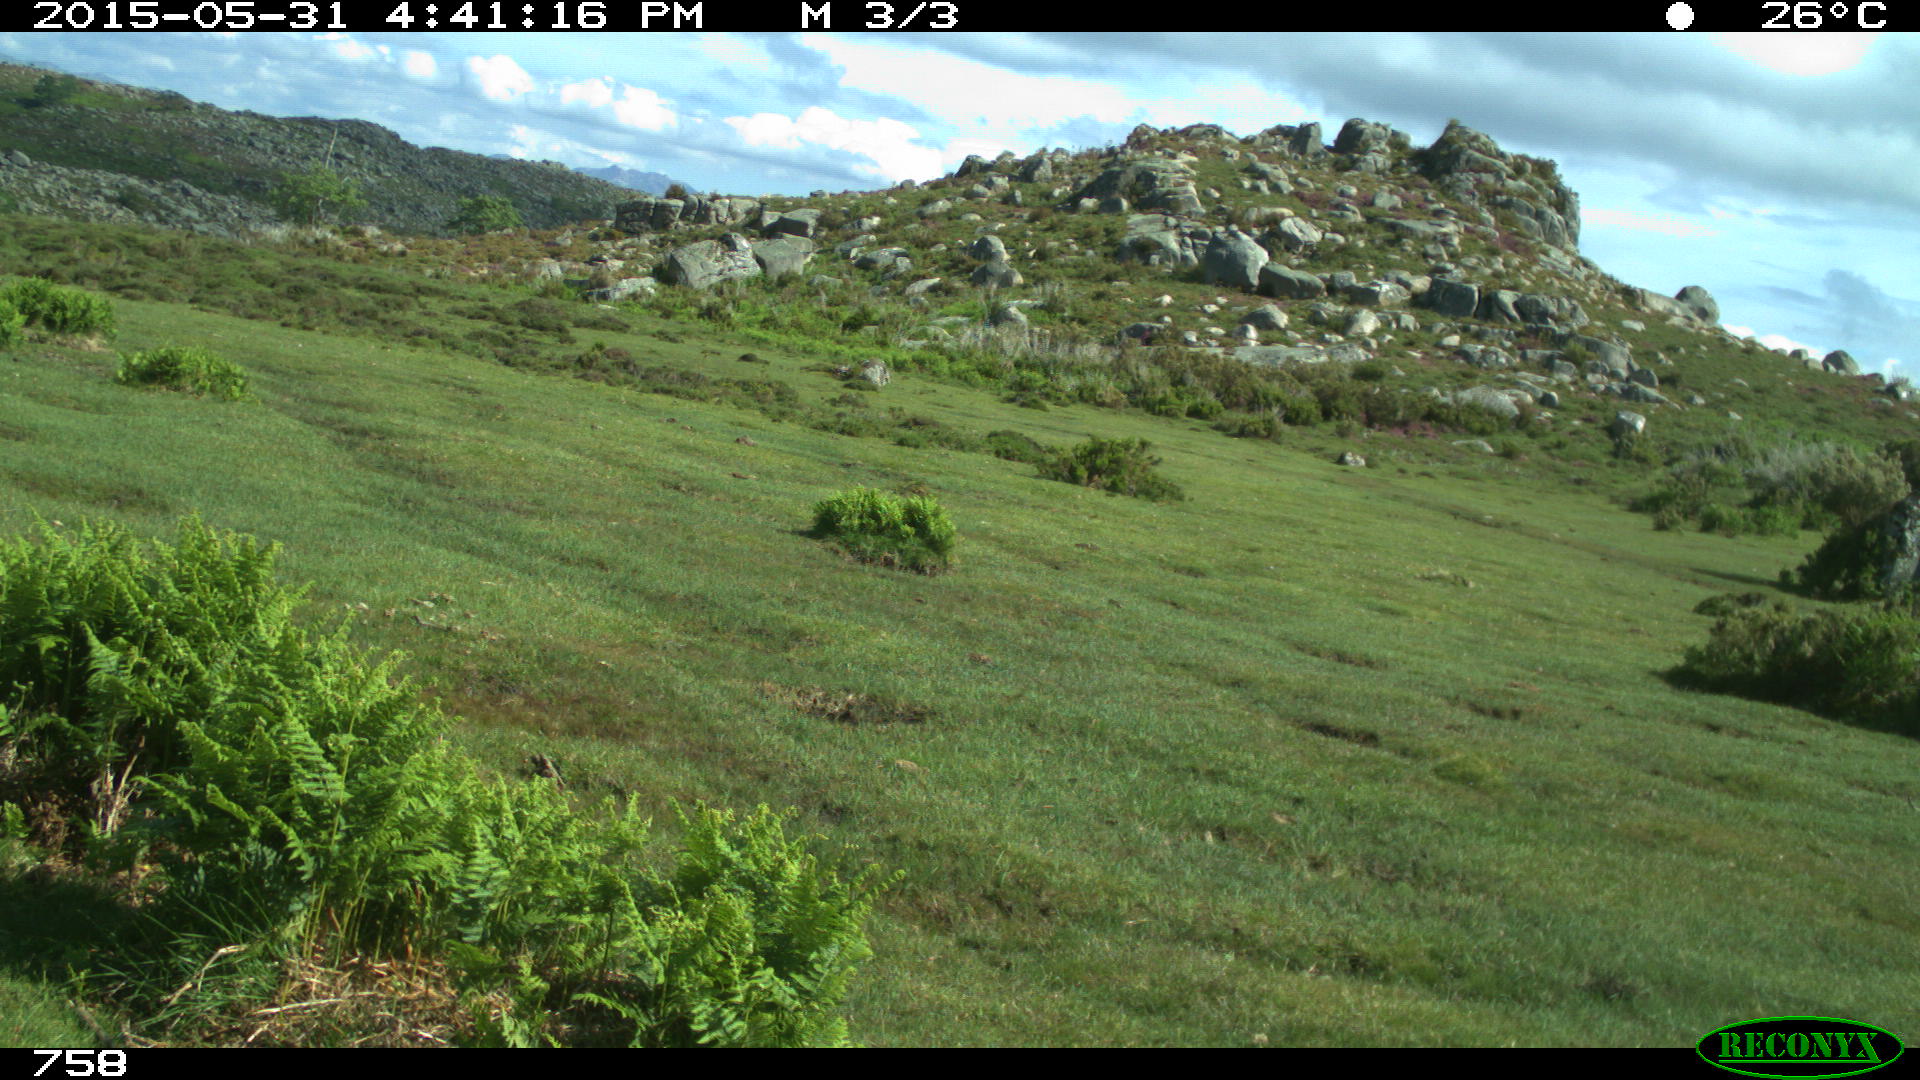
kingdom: Animalia
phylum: Chordata
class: Mammalia
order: Artiodactyla
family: Bovidae
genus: Bos
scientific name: Bos taurus
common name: Domesticated cattle
